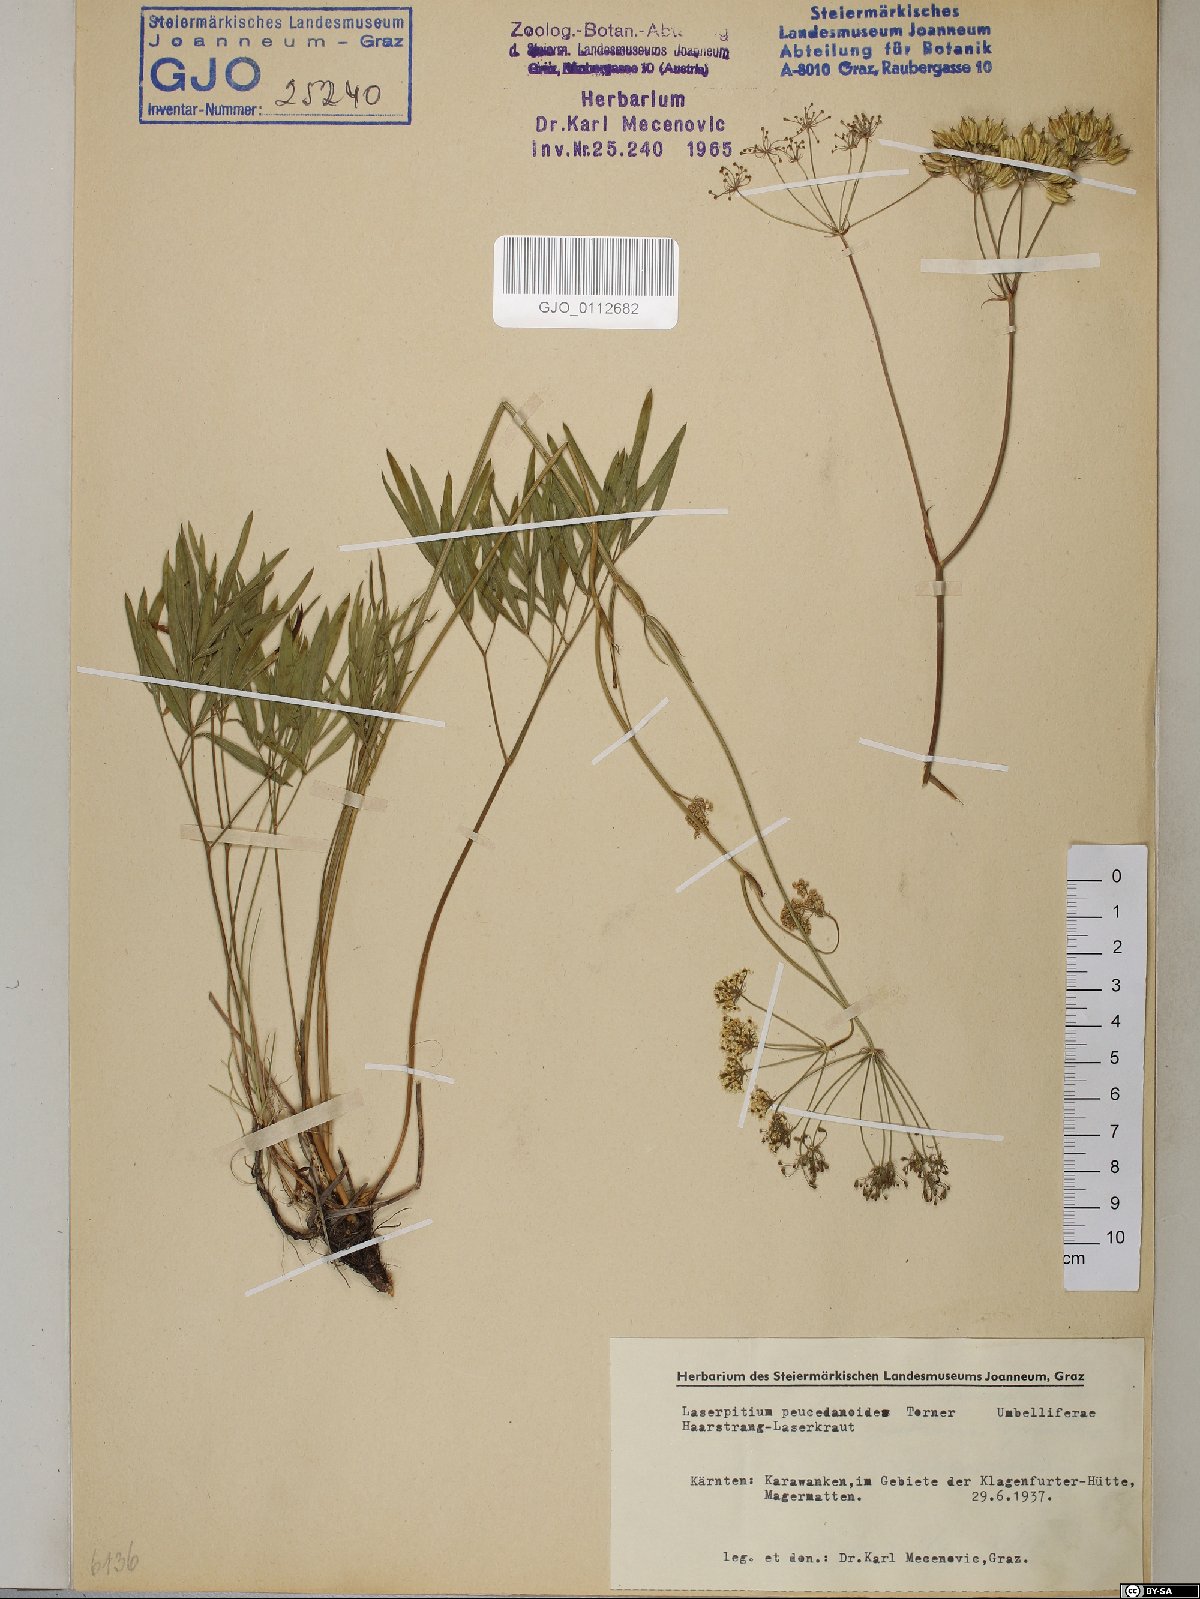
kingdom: Plantae
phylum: Tracheophyta
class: Magnoliopsida
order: Apiales
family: Apiaceae
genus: Laserpitium
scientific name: Laserpitium peucedanoides
